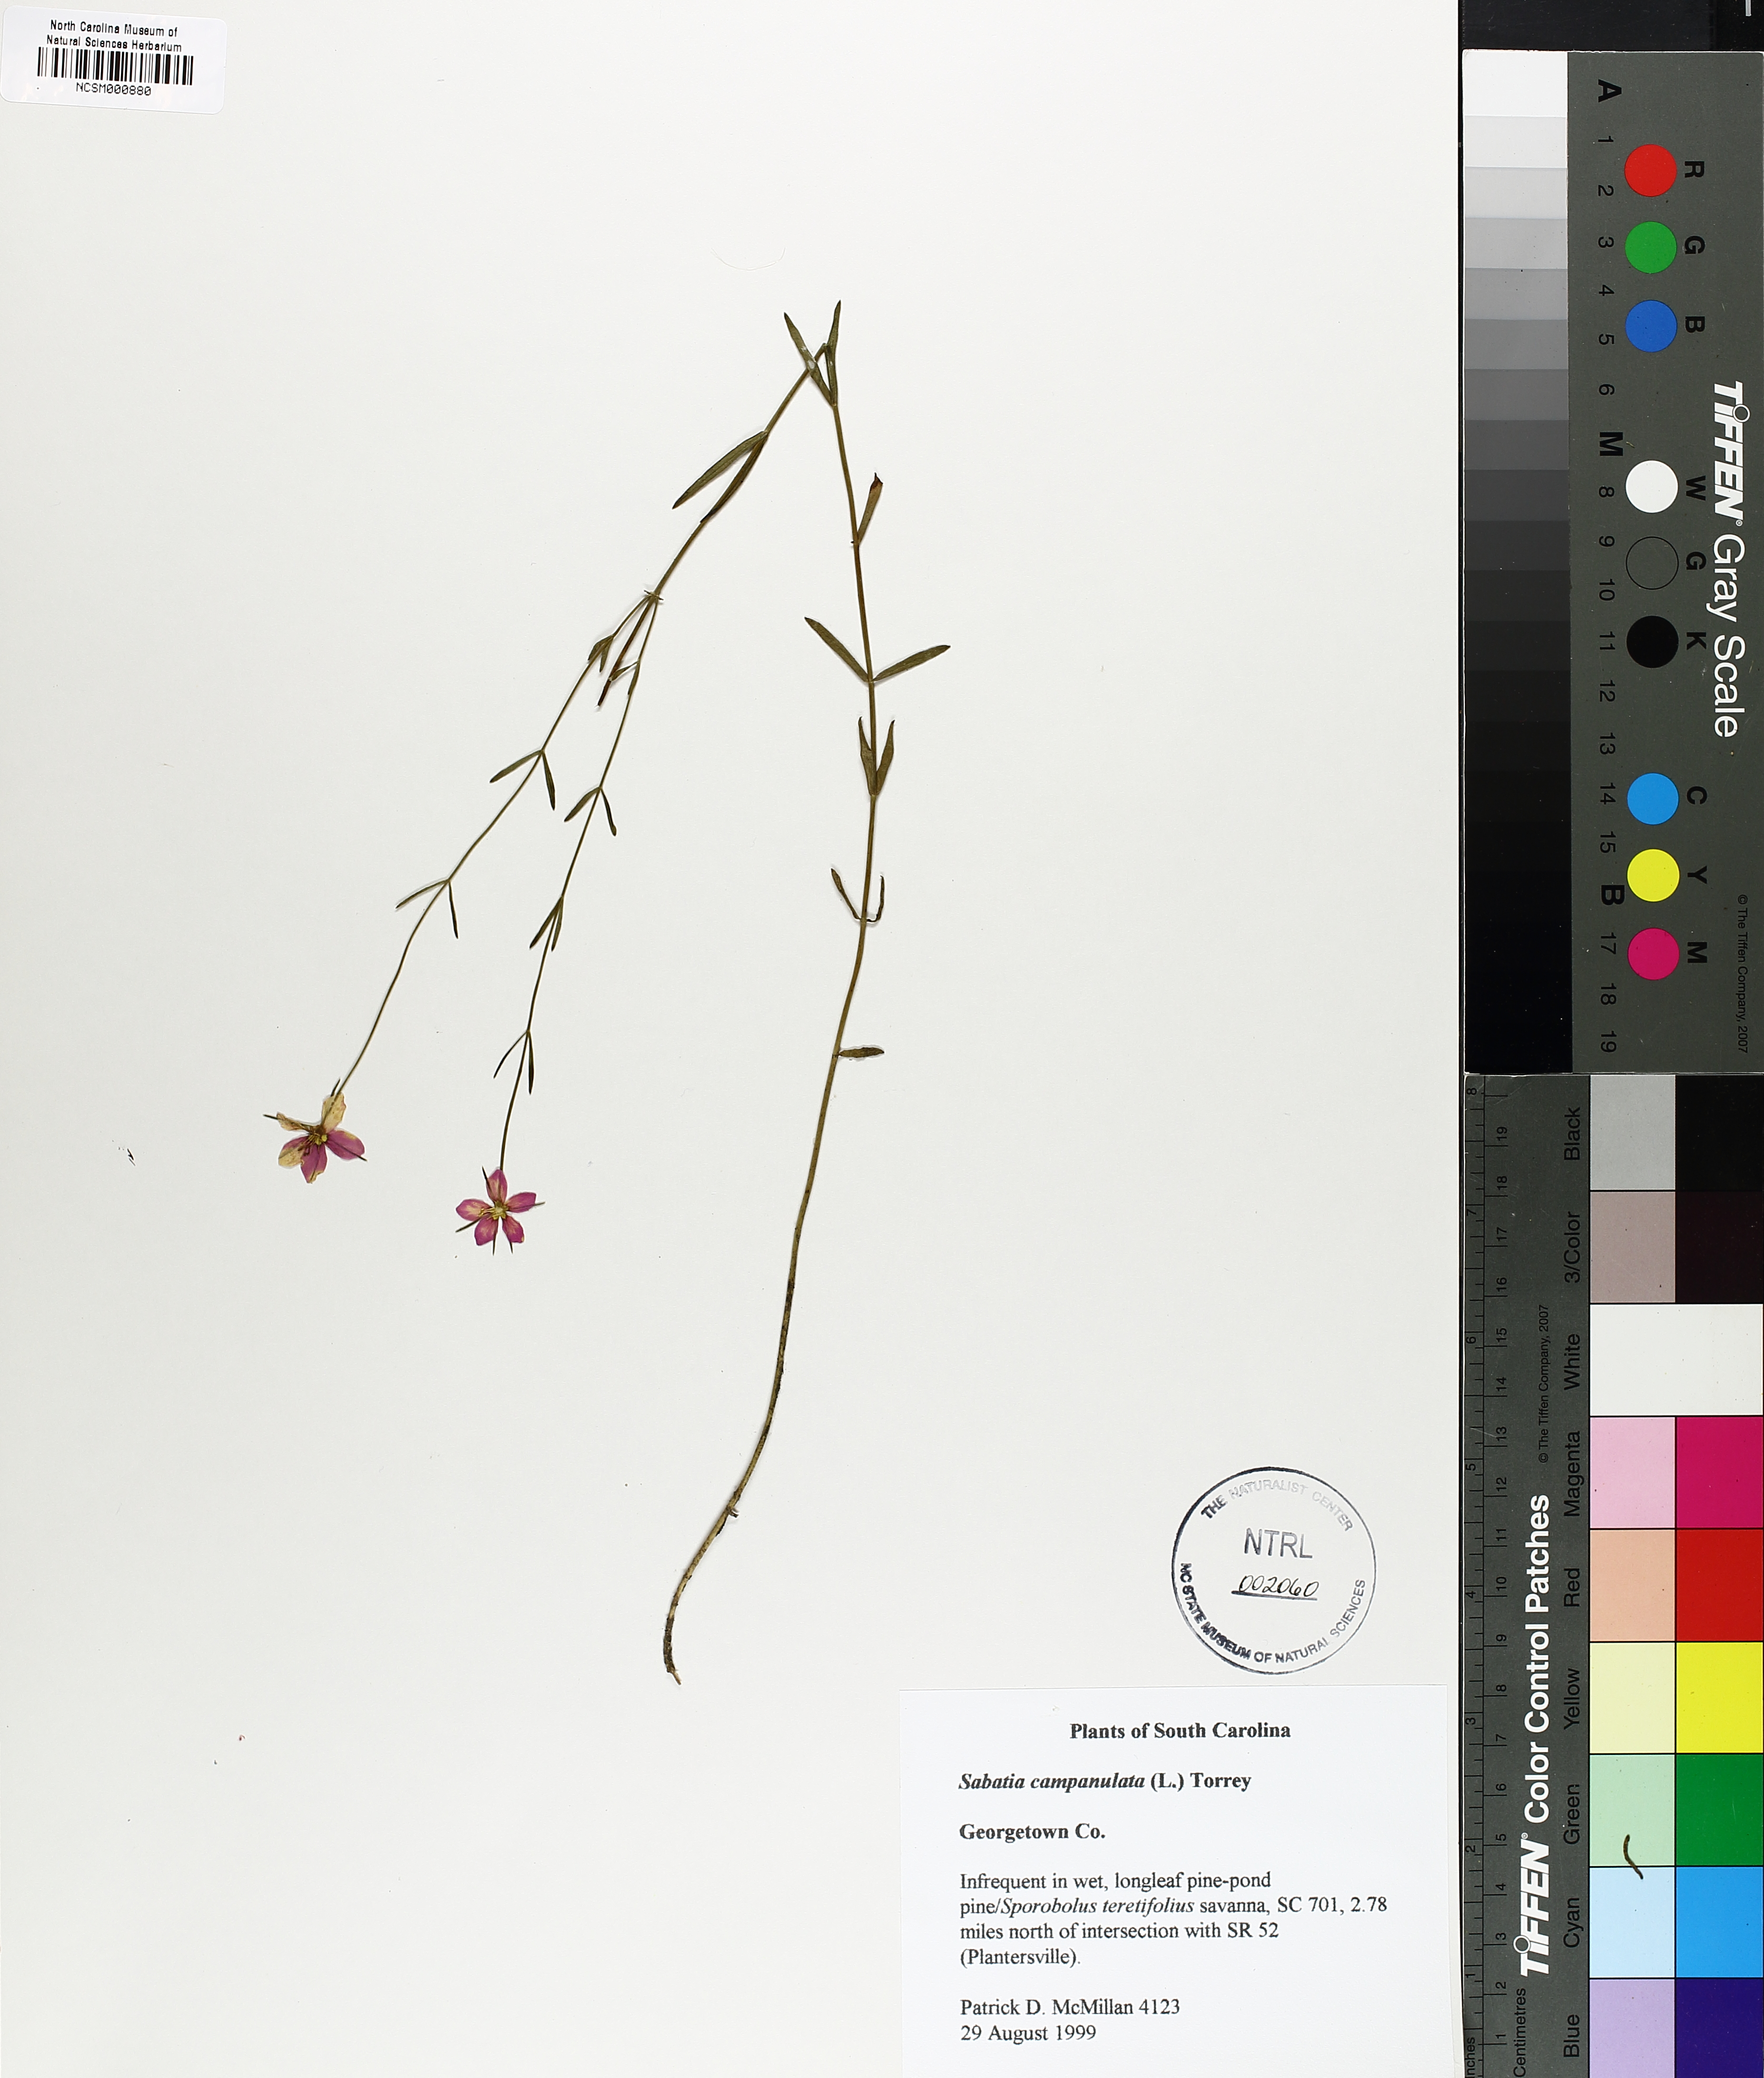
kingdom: Plantae
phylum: Tracheophyta
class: Magnoliopsida
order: Gentianales
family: Gentianaceae
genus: Sabatia
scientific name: Sabatia campanulata
